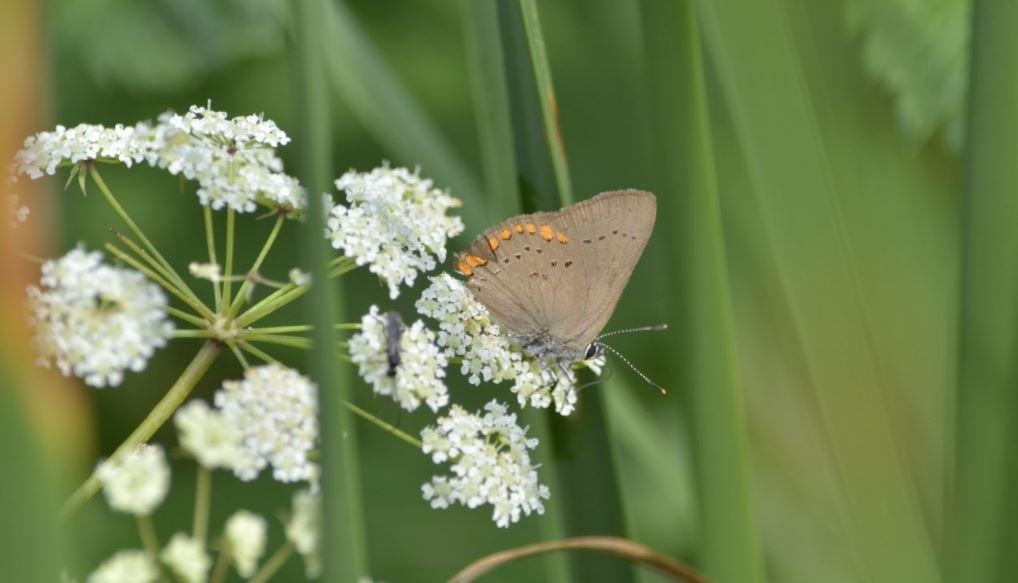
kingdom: Animalia
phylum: Arthropoda
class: Insecta
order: Lepidoptera
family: Lycaenidae
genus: Harkenclenus
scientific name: Harkenclenus titus
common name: Coral Hairstreak
